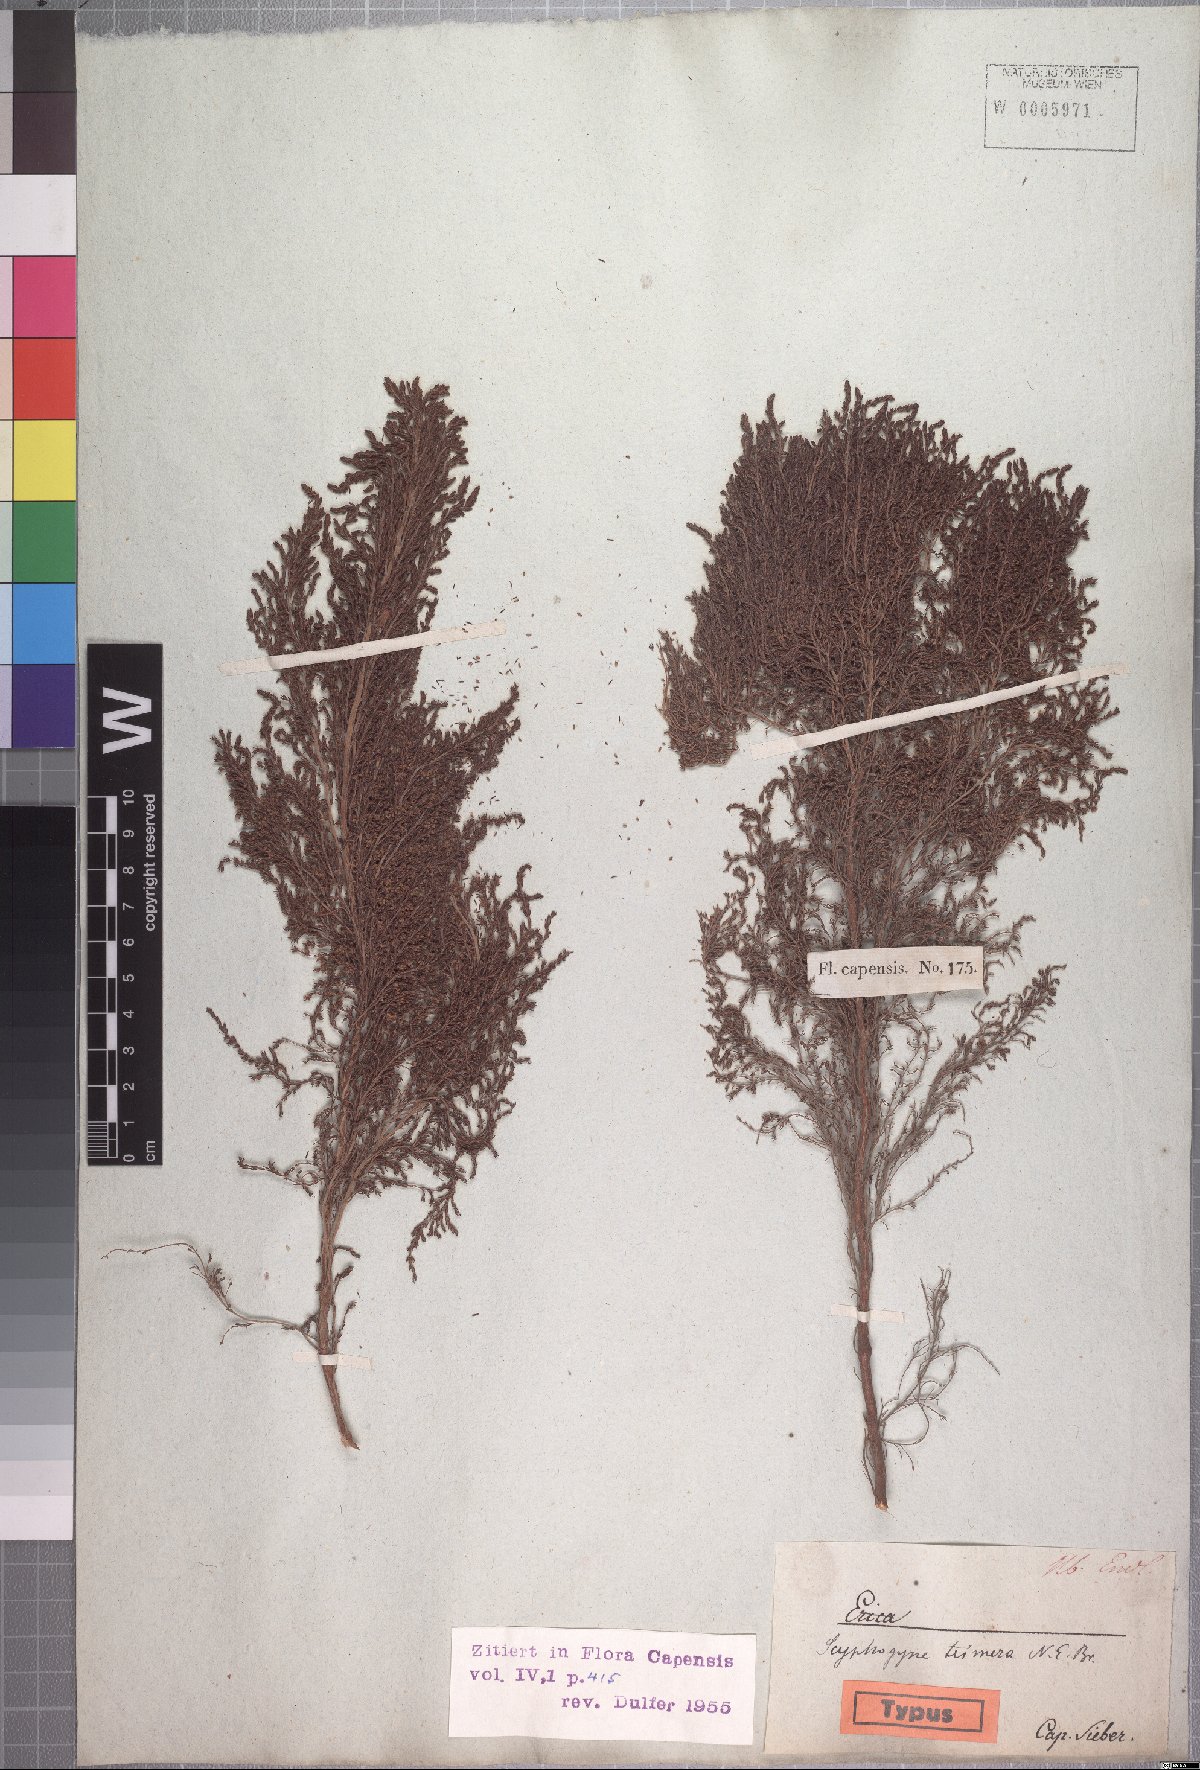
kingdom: Plantae
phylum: Tracheophyta
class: Magnoliopsida
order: Ericales
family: Ericaceae
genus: Erica
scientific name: Erica urceolata
